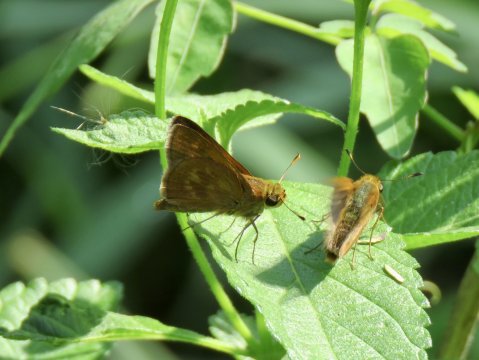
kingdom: Animalia
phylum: Arthropoda
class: Insecta
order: Lepidoptera
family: Hesperiidae
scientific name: Hesperiidae
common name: Skippers
